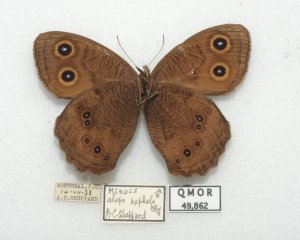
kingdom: Animalia
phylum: Arthropoda
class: Insecta
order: Lepidoptera
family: Nymphalidae
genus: Cercyonis
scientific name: Cercyonis pegala
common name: Common Wood-Nymph
